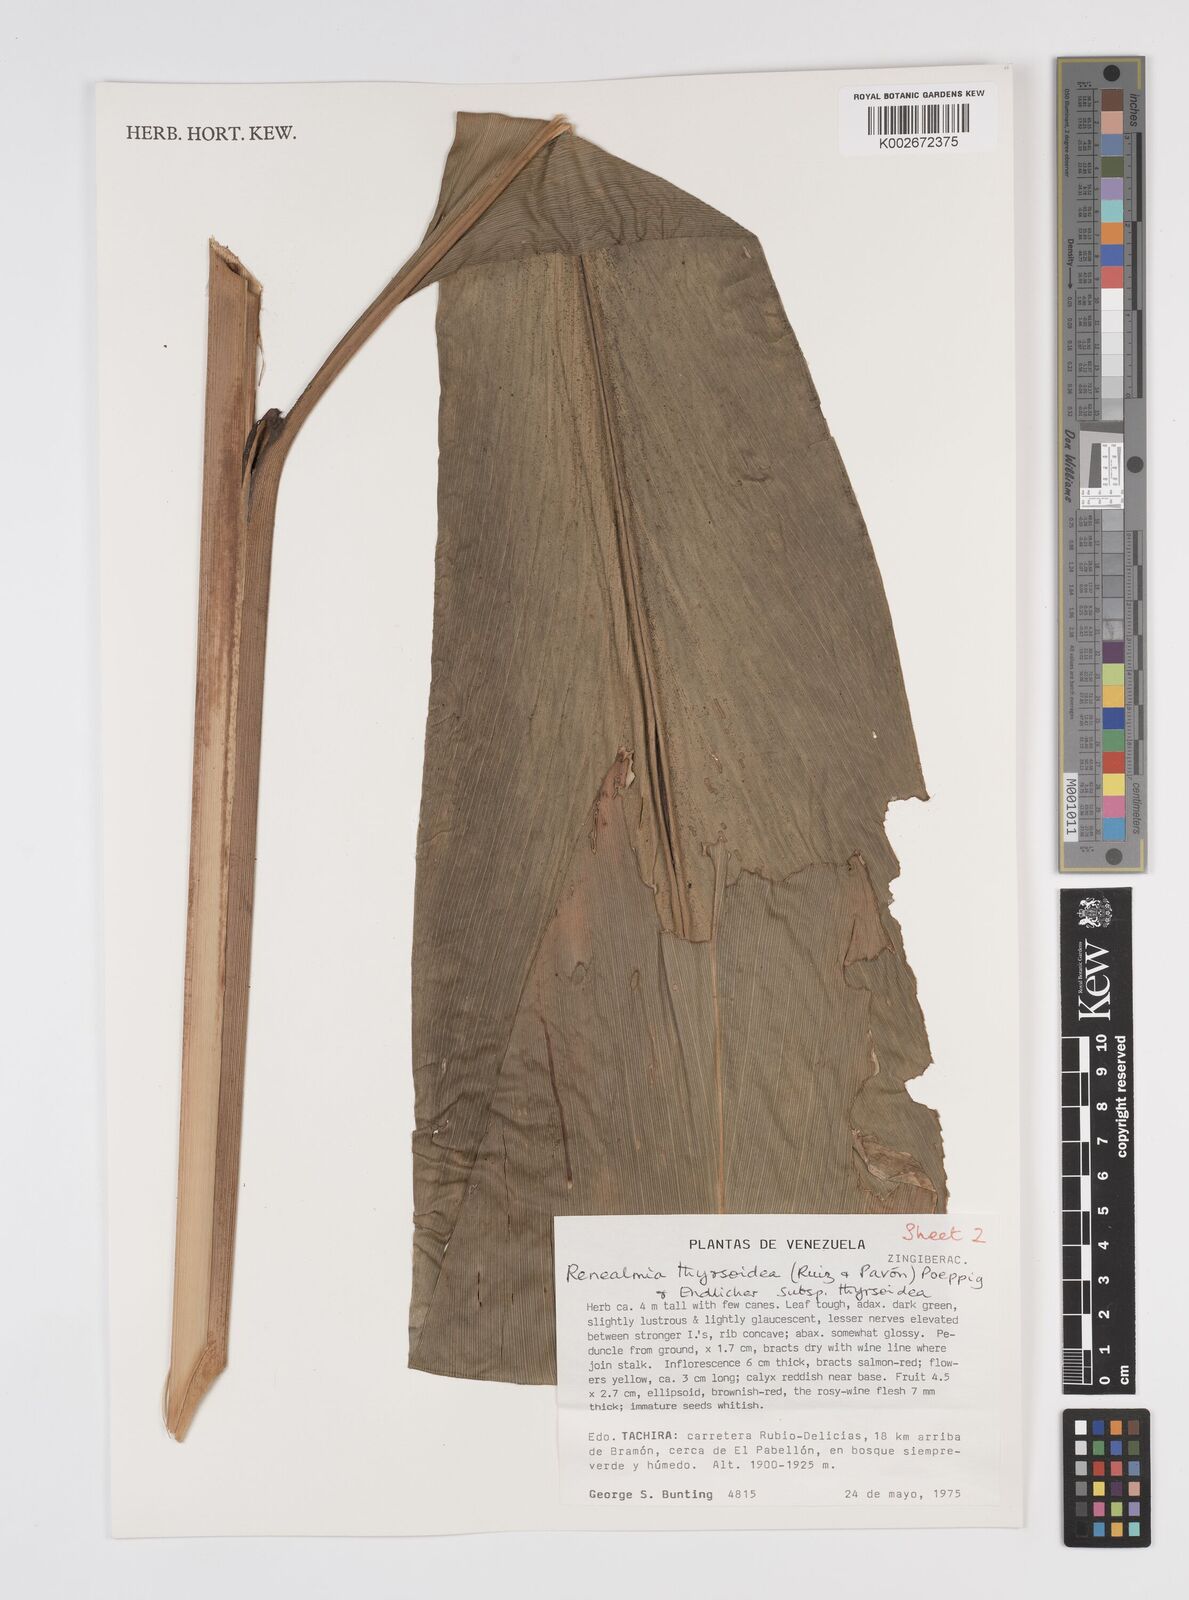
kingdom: Plantae
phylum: Tracheophyta
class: Liliopsida
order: Zingiberales
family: Zingiberaceae
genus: Renealmia
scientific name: Renealmia thyrsoidea
